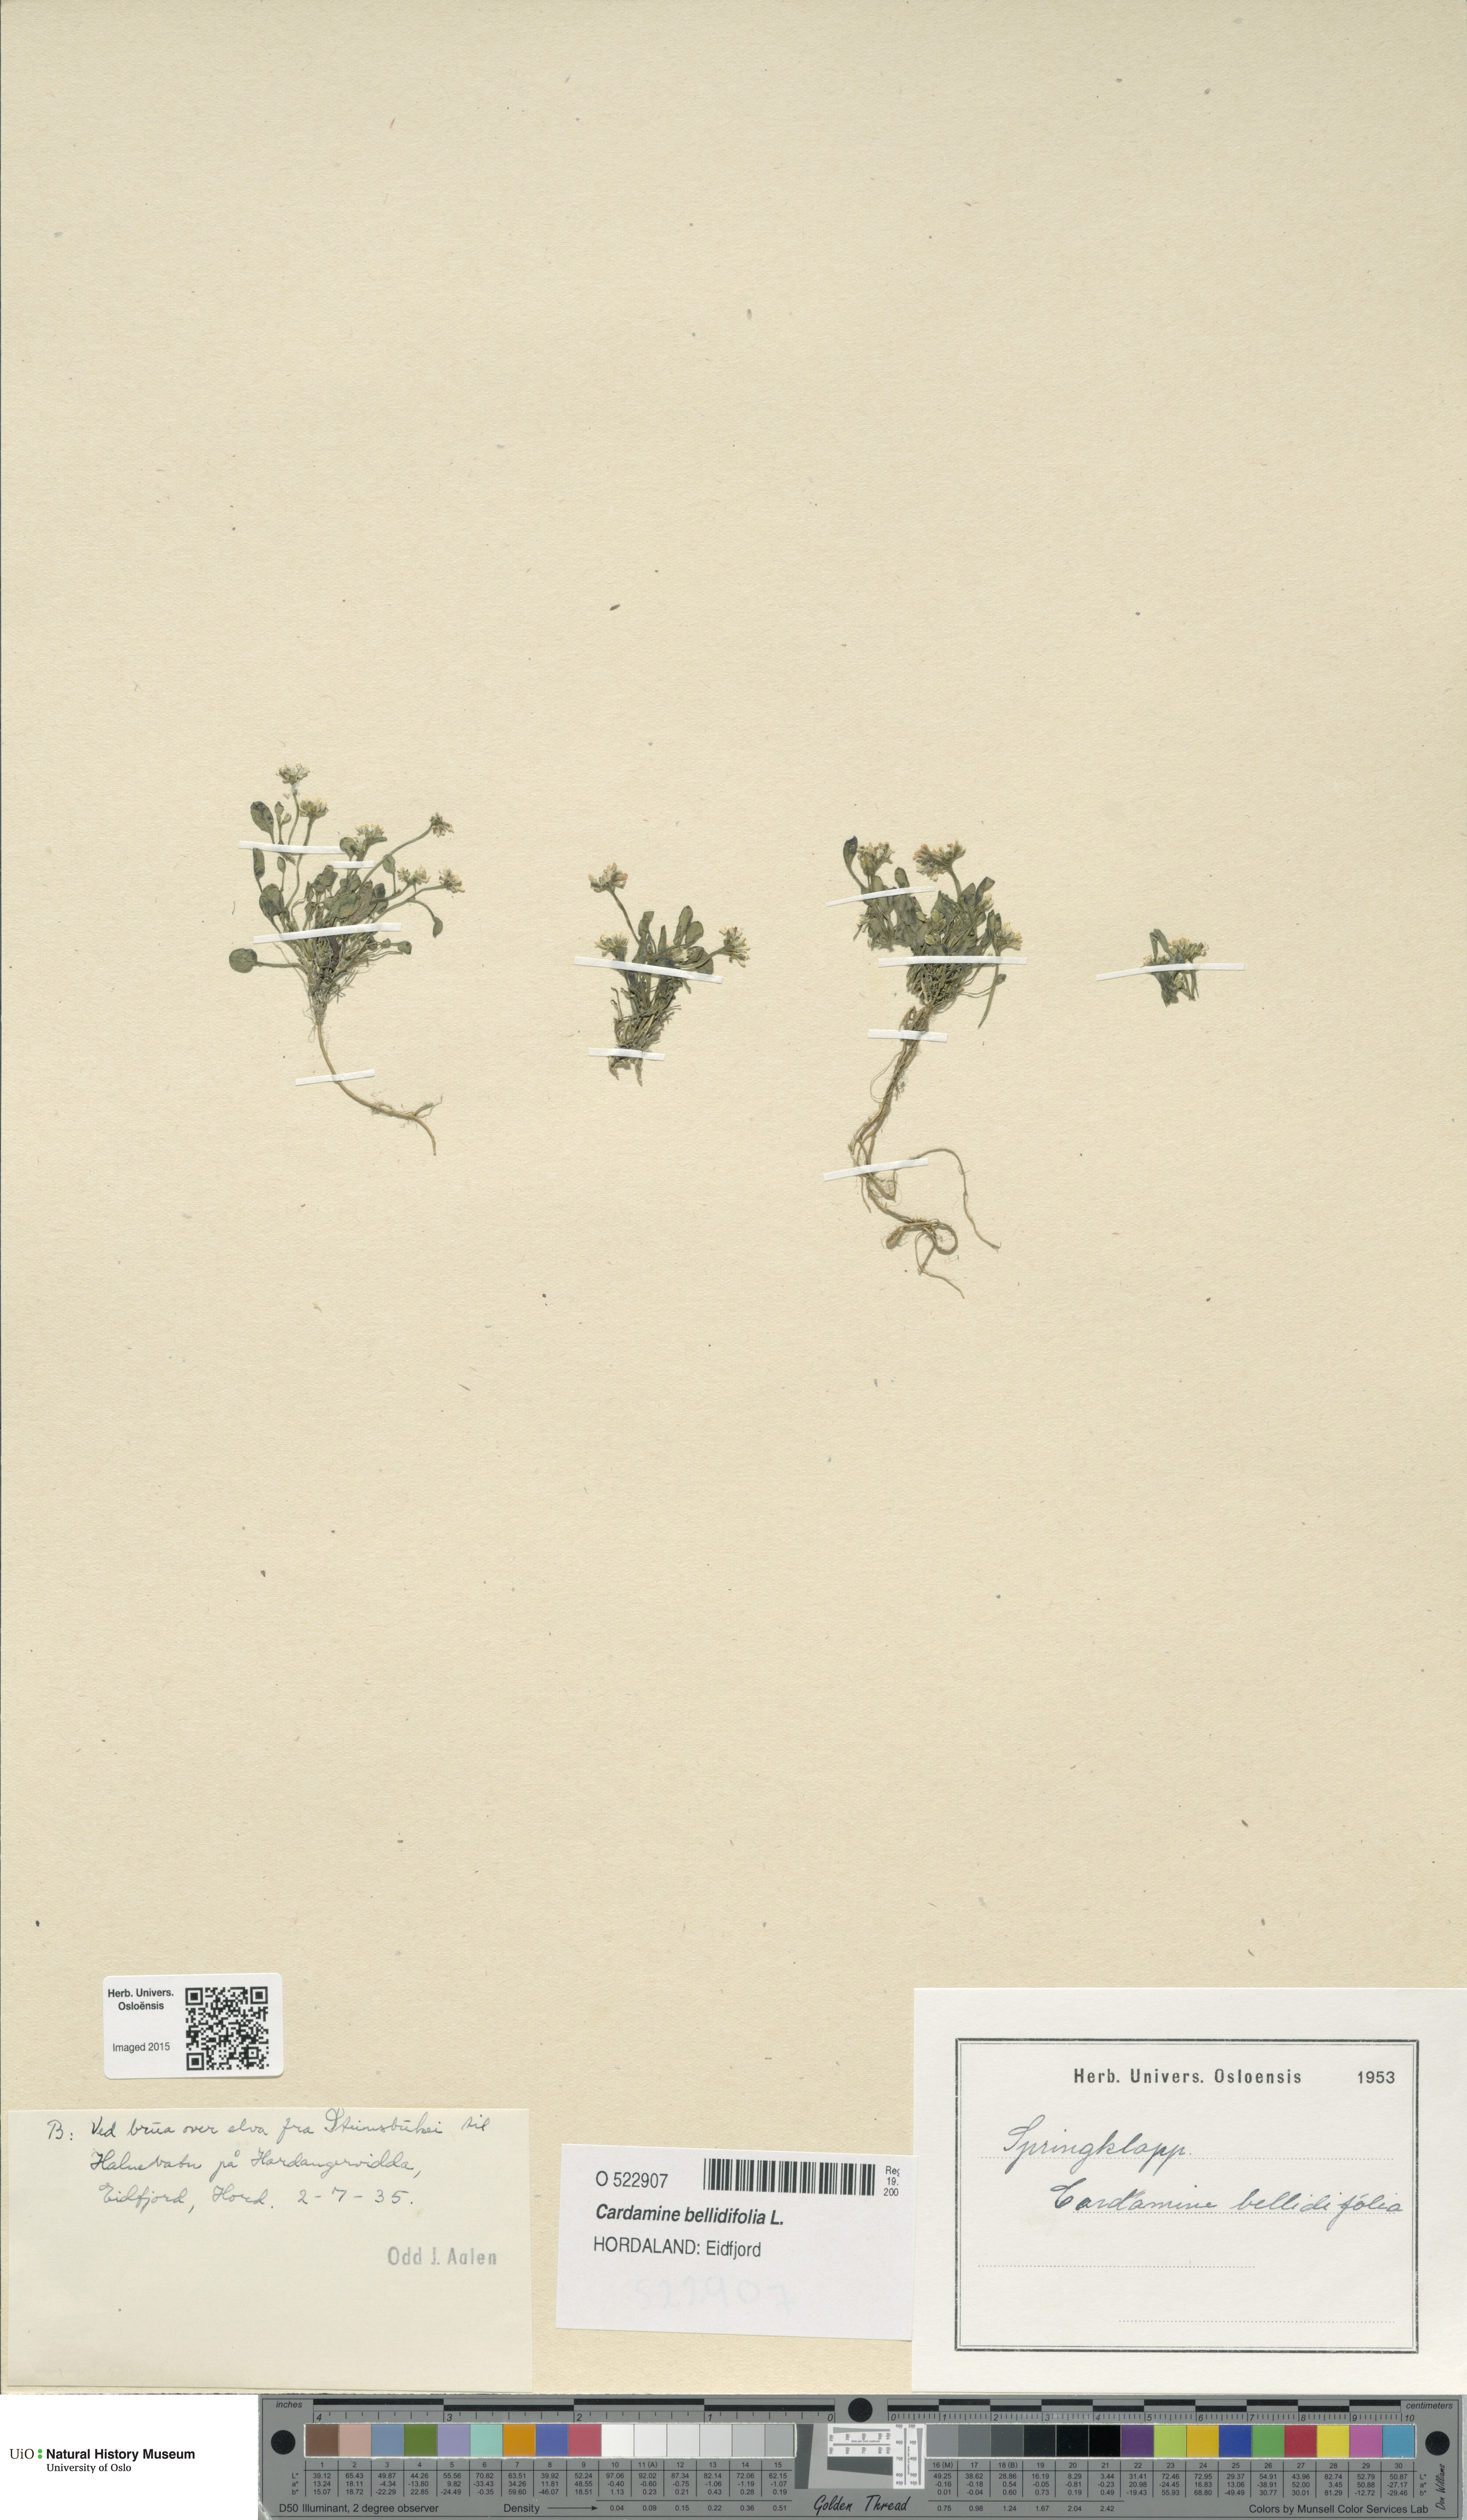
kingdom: Plantae
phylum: Tracheophyta
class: Magnoliopsida
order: Brassicales
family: Brassicaceae
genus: Cardamine
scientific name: Cardamine bellidifolia
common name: Alpine bittercress
